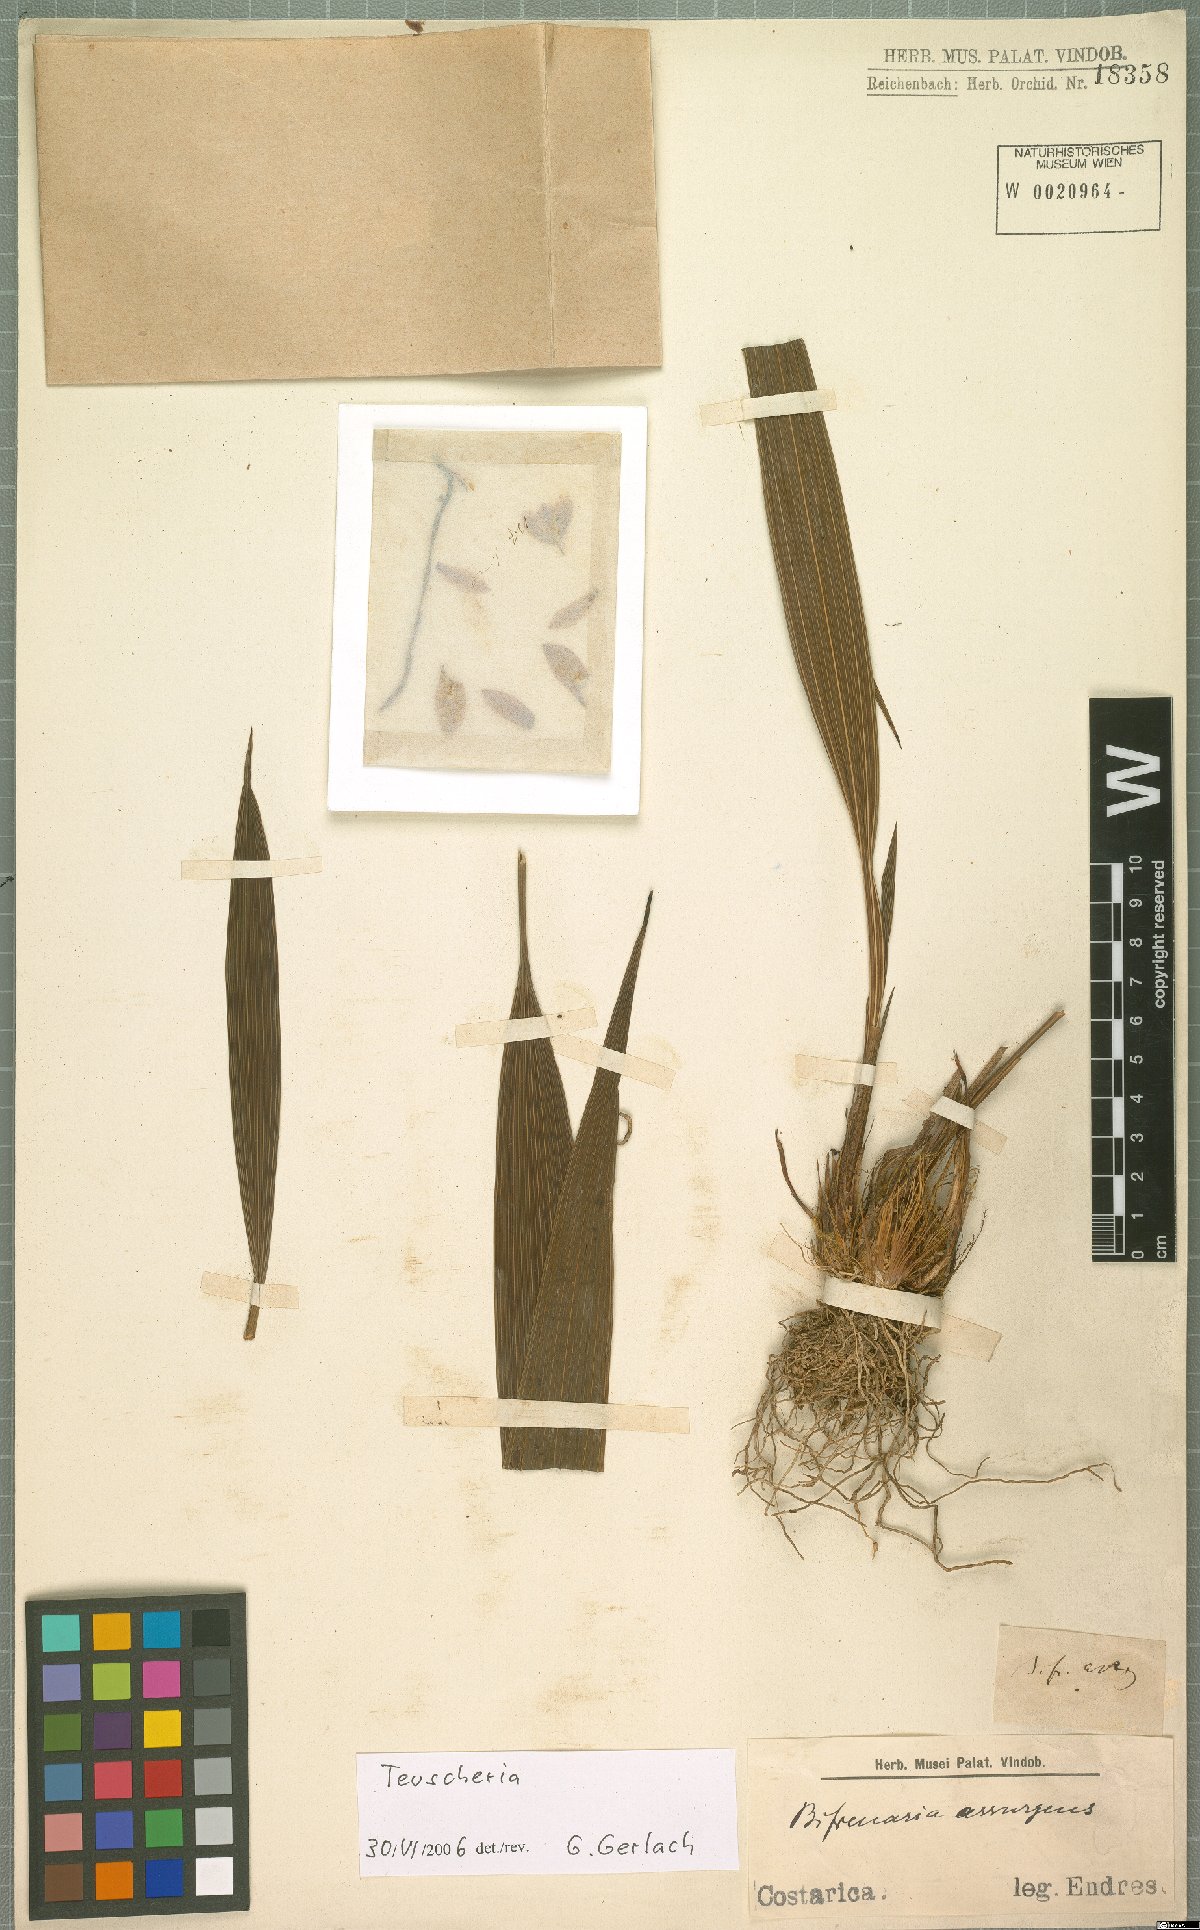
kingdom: Plantae
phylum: Tracheophyta
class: Liliopsida
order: Asparagales
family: Orchidaceae
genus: Teuscheria
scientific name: Teuscheria
